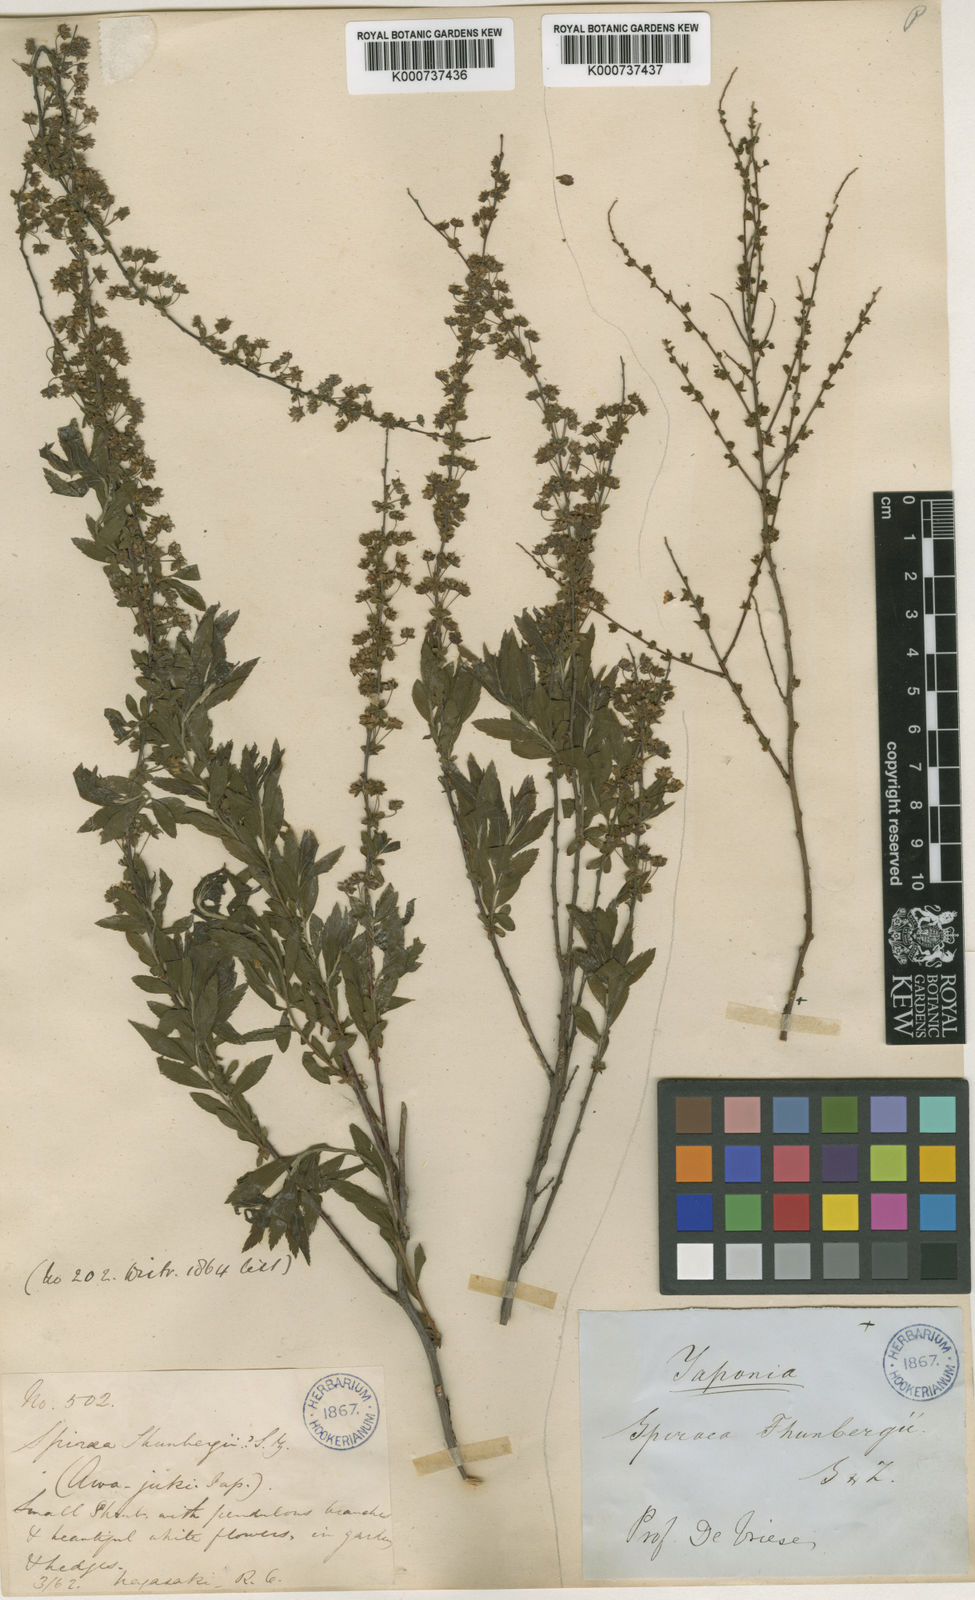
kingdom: Plantae
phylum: Tracheophyta
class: Magnoliopsida
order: Rosales
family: Rosaceae
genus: Spiraea
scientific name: Spiraea
